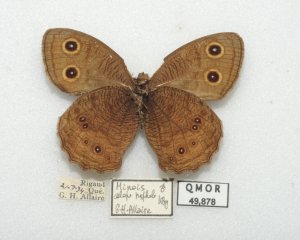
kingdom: Animalia
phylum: Arthropoda
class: Insecta
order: Lepidoptera
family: Nymphalidae
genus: Cercyonis
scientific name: Cercyonis pegala
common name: Common Wood-Nymph
